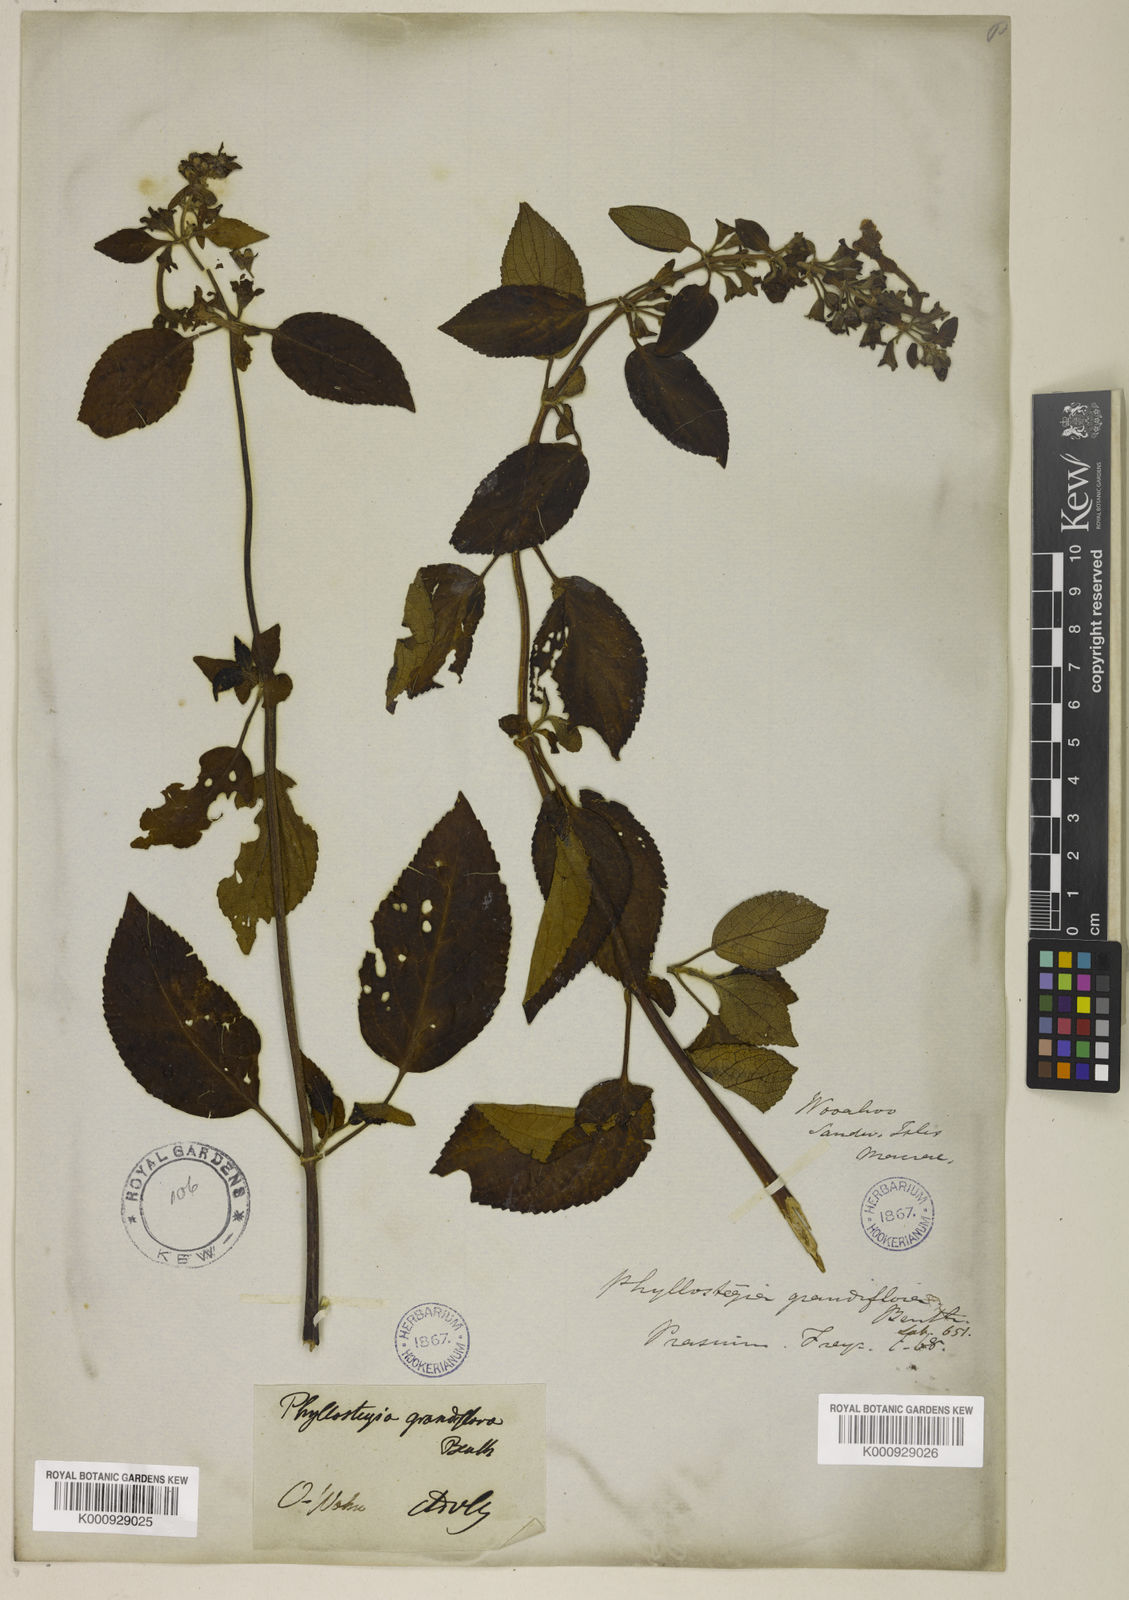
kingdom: Plantae
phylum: Tracheophyta
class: Magnoliopsida
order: Lamiales
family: Lamiaceae
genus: Phyllostegia
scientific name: Phyllostegia grandiflora
